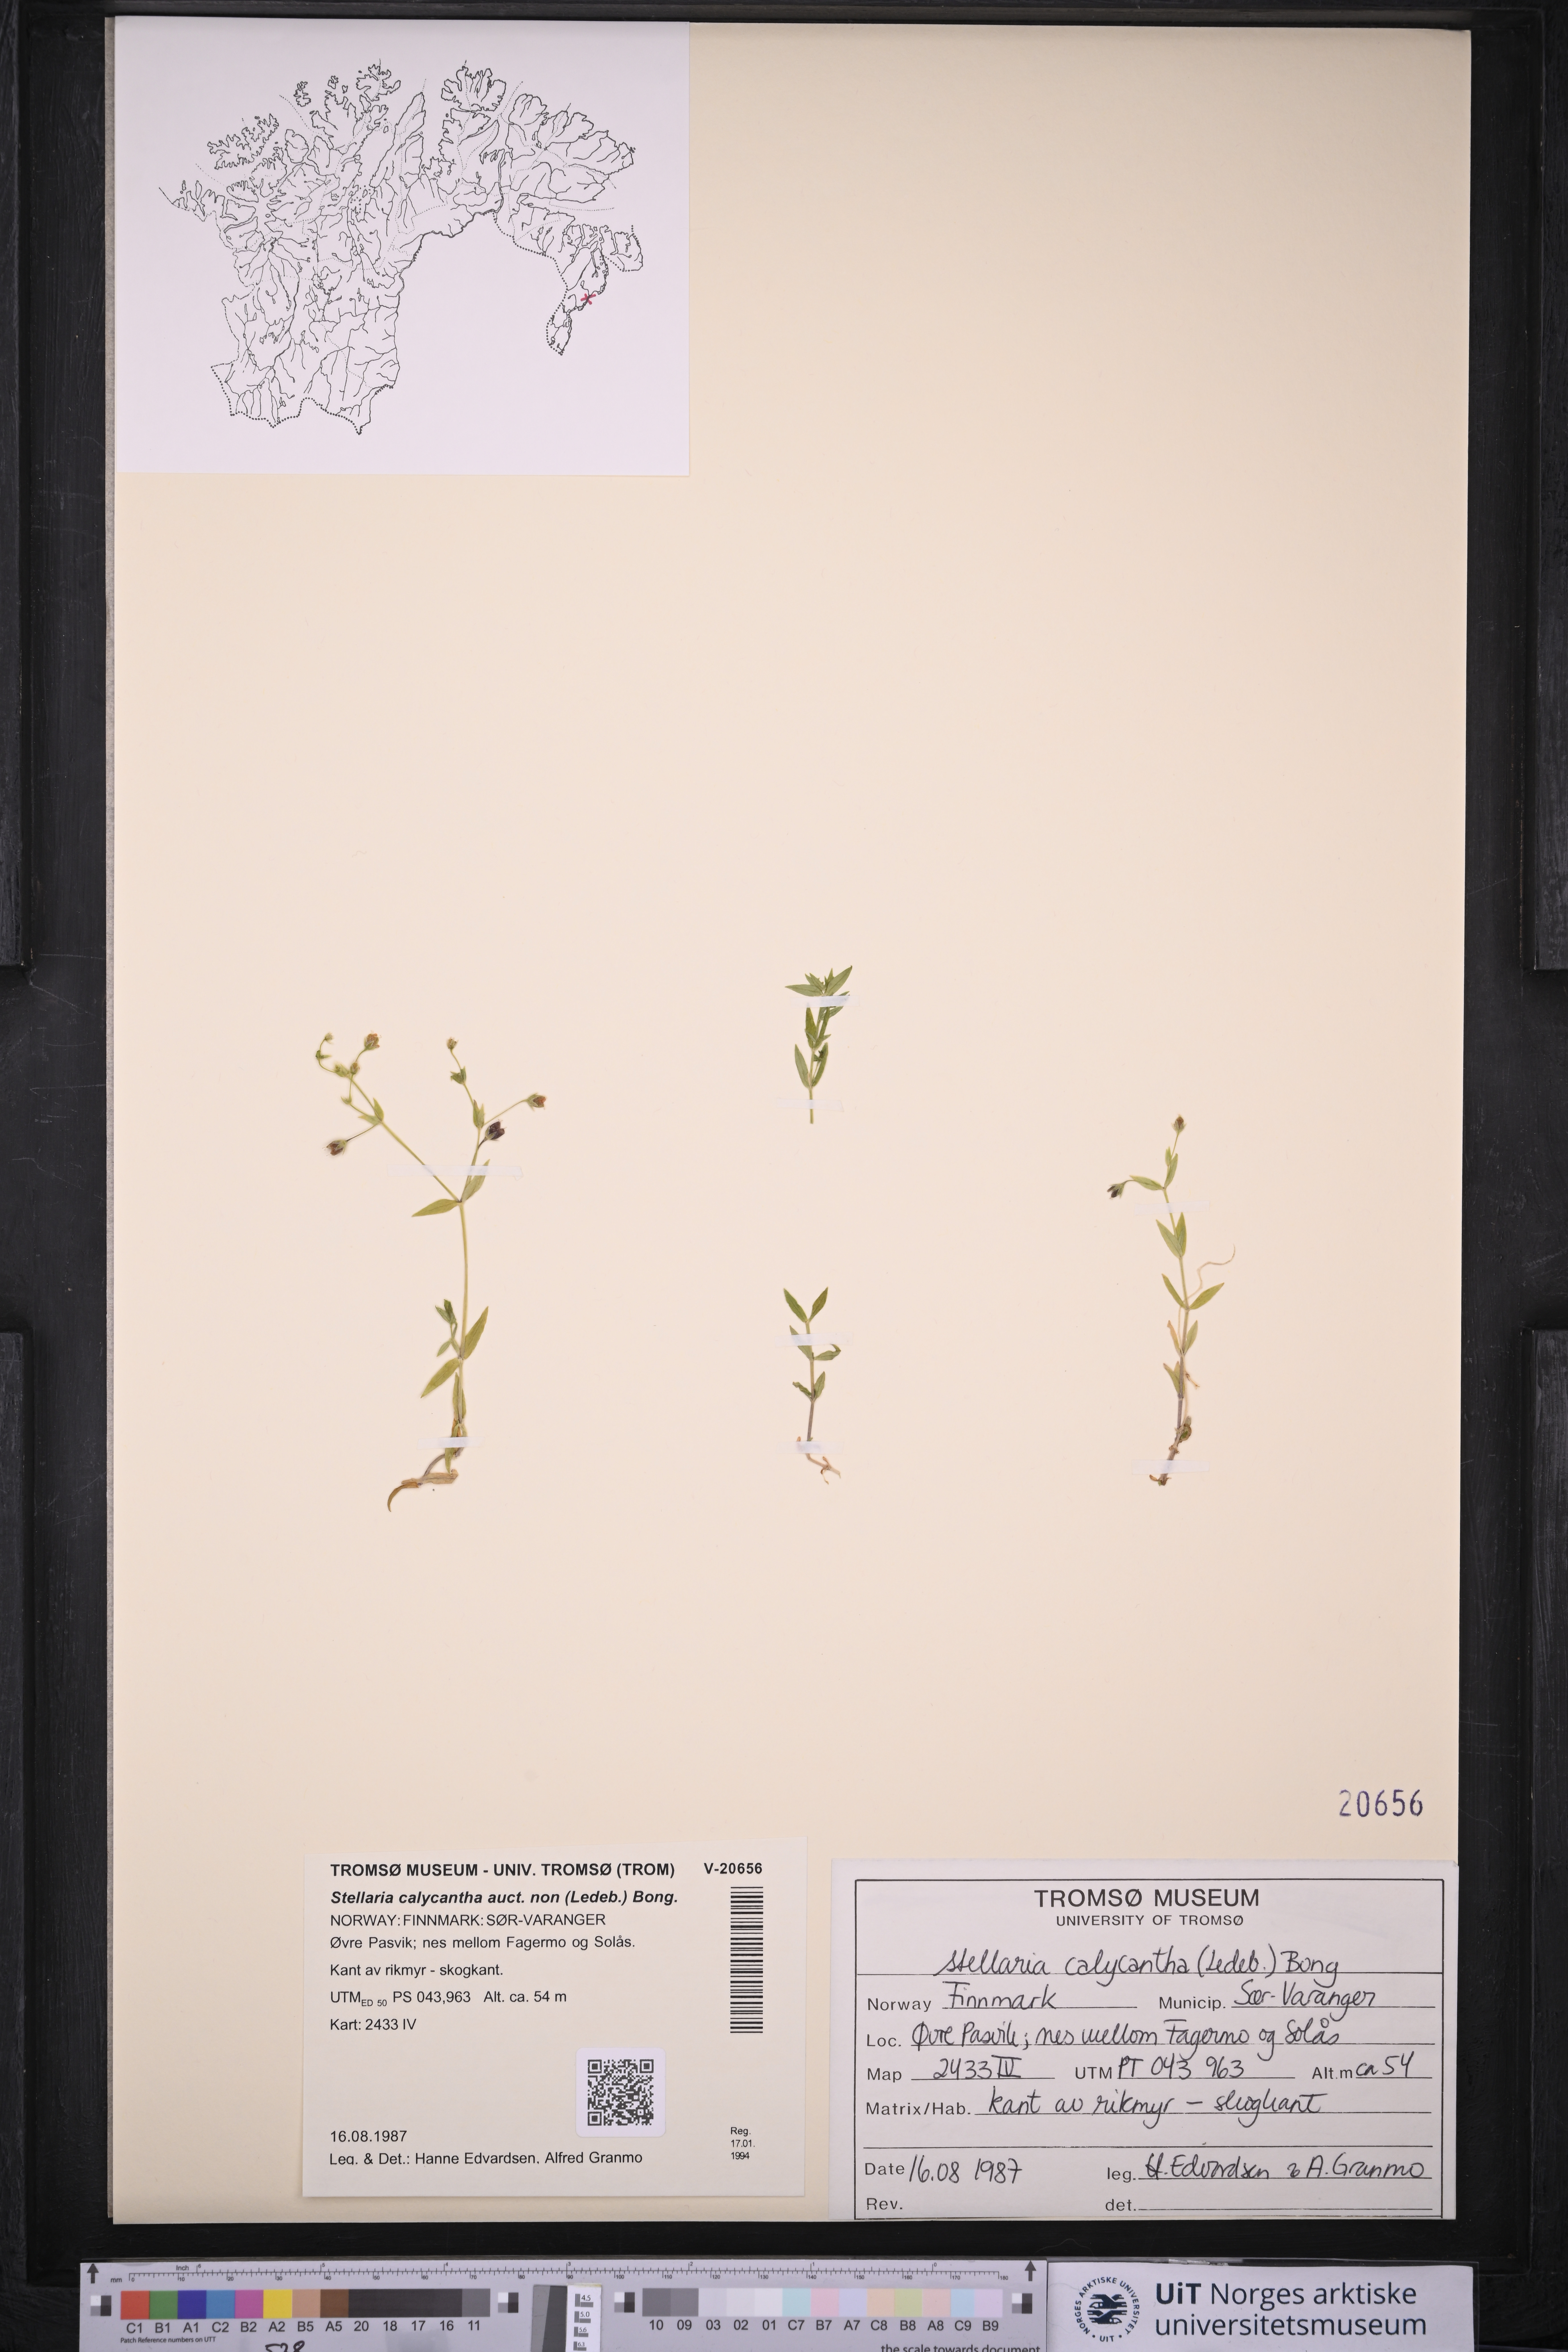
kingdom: Plantae
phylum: Tracheophyta
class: Magnoliopsida
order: Caryophyllales
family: Caryophyllaceae
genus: Stellaria
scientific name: Stellaria borealis
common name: Boreal starwort
